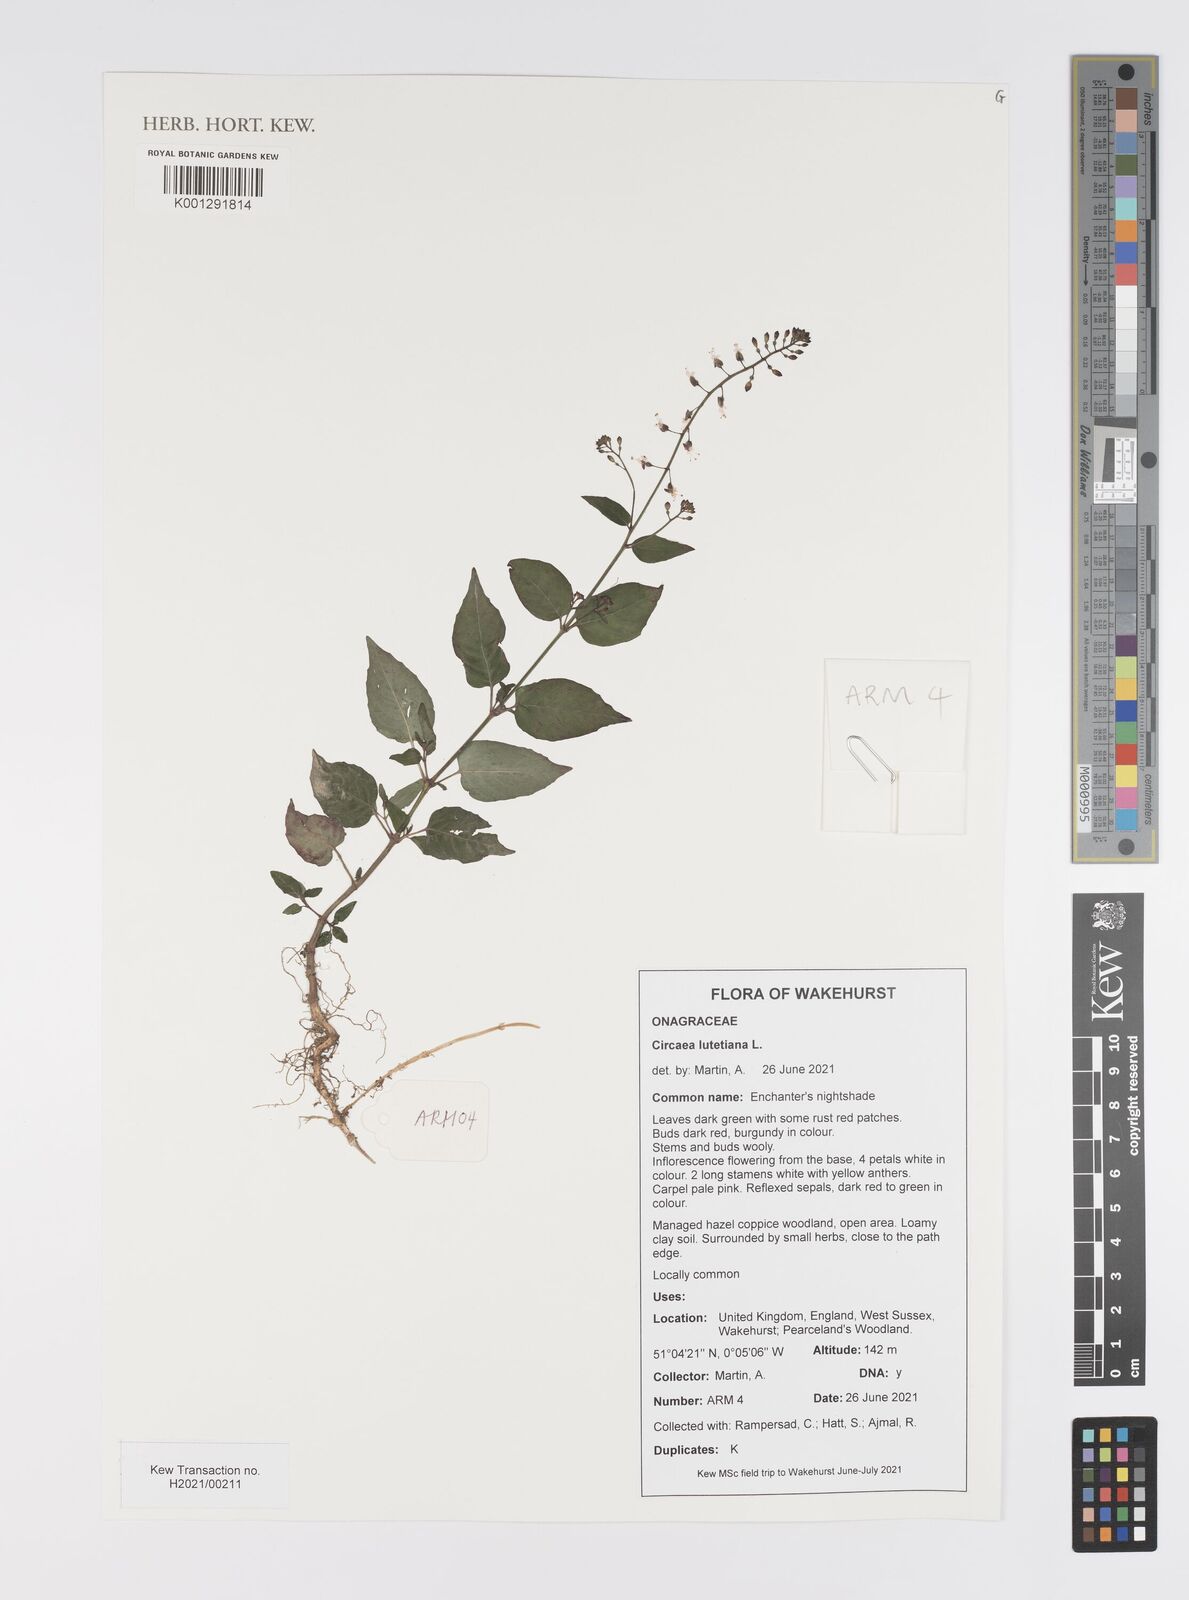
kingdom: Plantae
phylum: Tracheophyta
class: Magnoliopsida
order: Myrtales
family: Onagraceae
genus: Circaea
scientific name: Circaea lutetiana
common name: Enchanter's-nightshade
